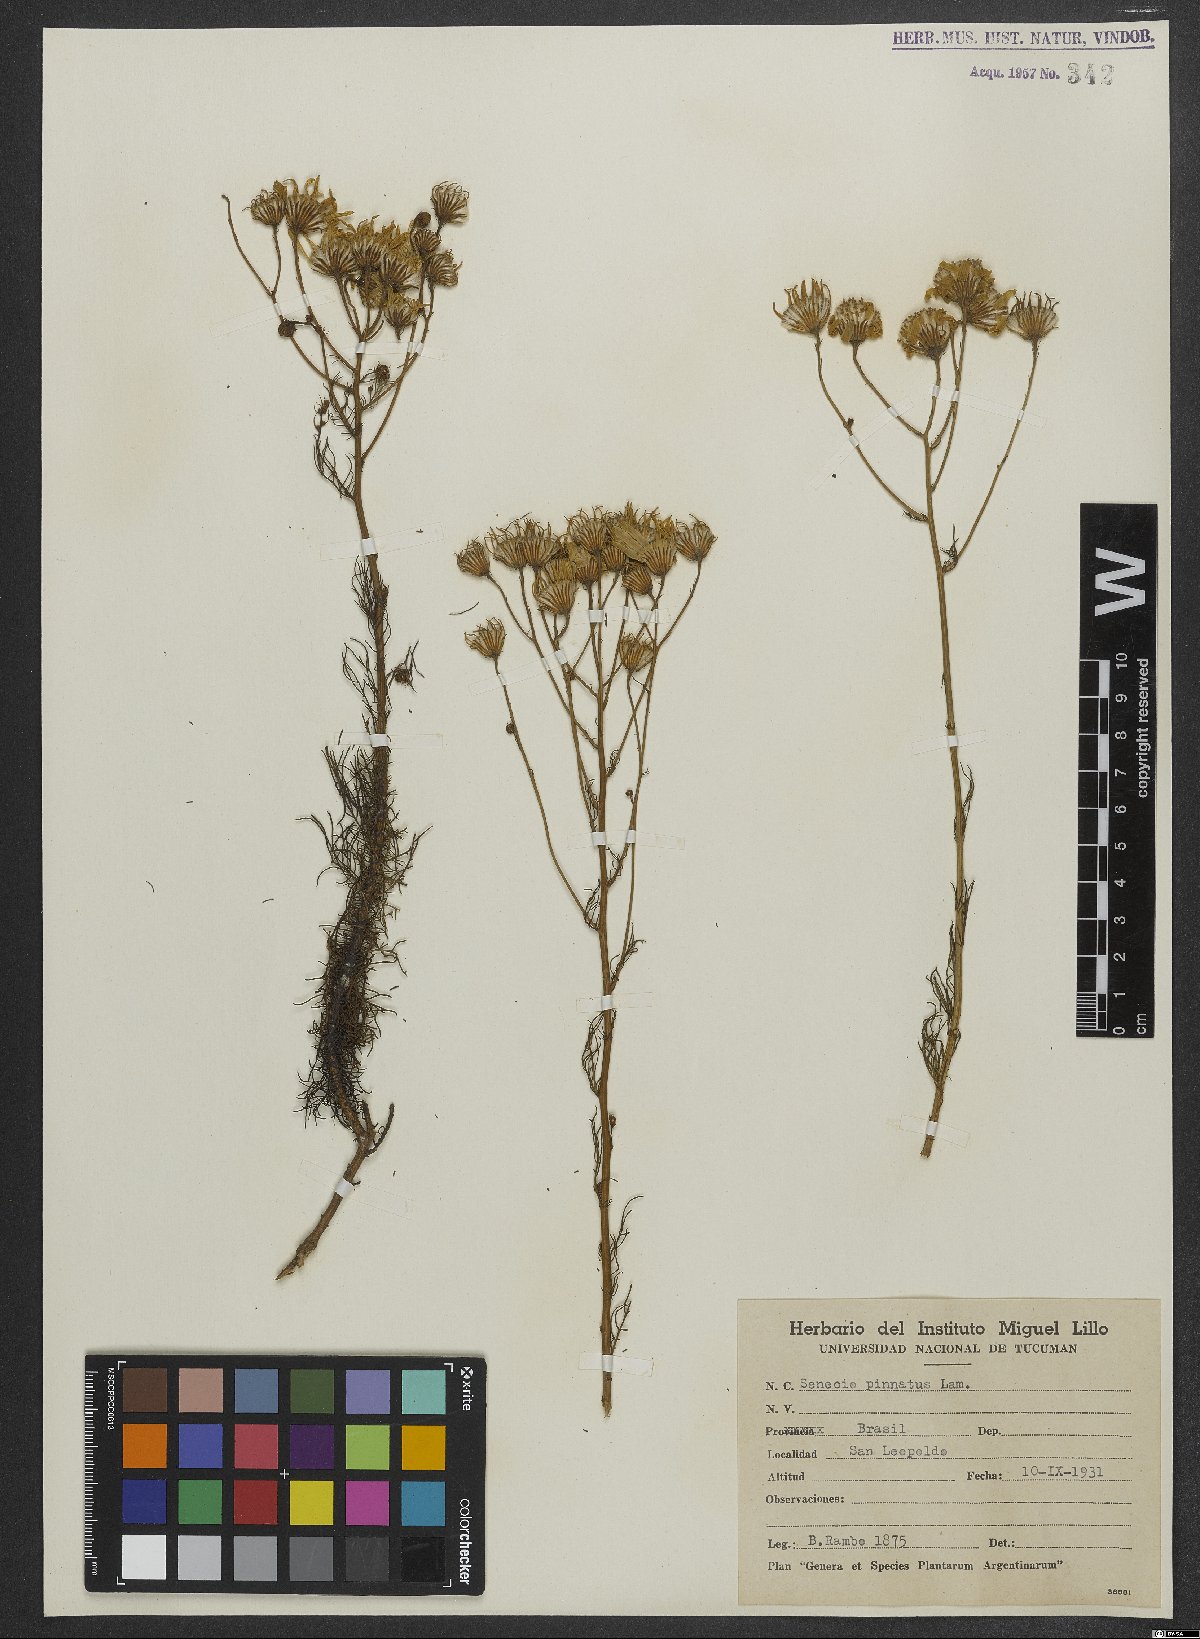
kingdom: Plantae
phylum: Tracheophyta
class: Magnoliopsida
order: Asterales
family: Asteraceae
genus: Senecio
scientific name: Senecio platensis
